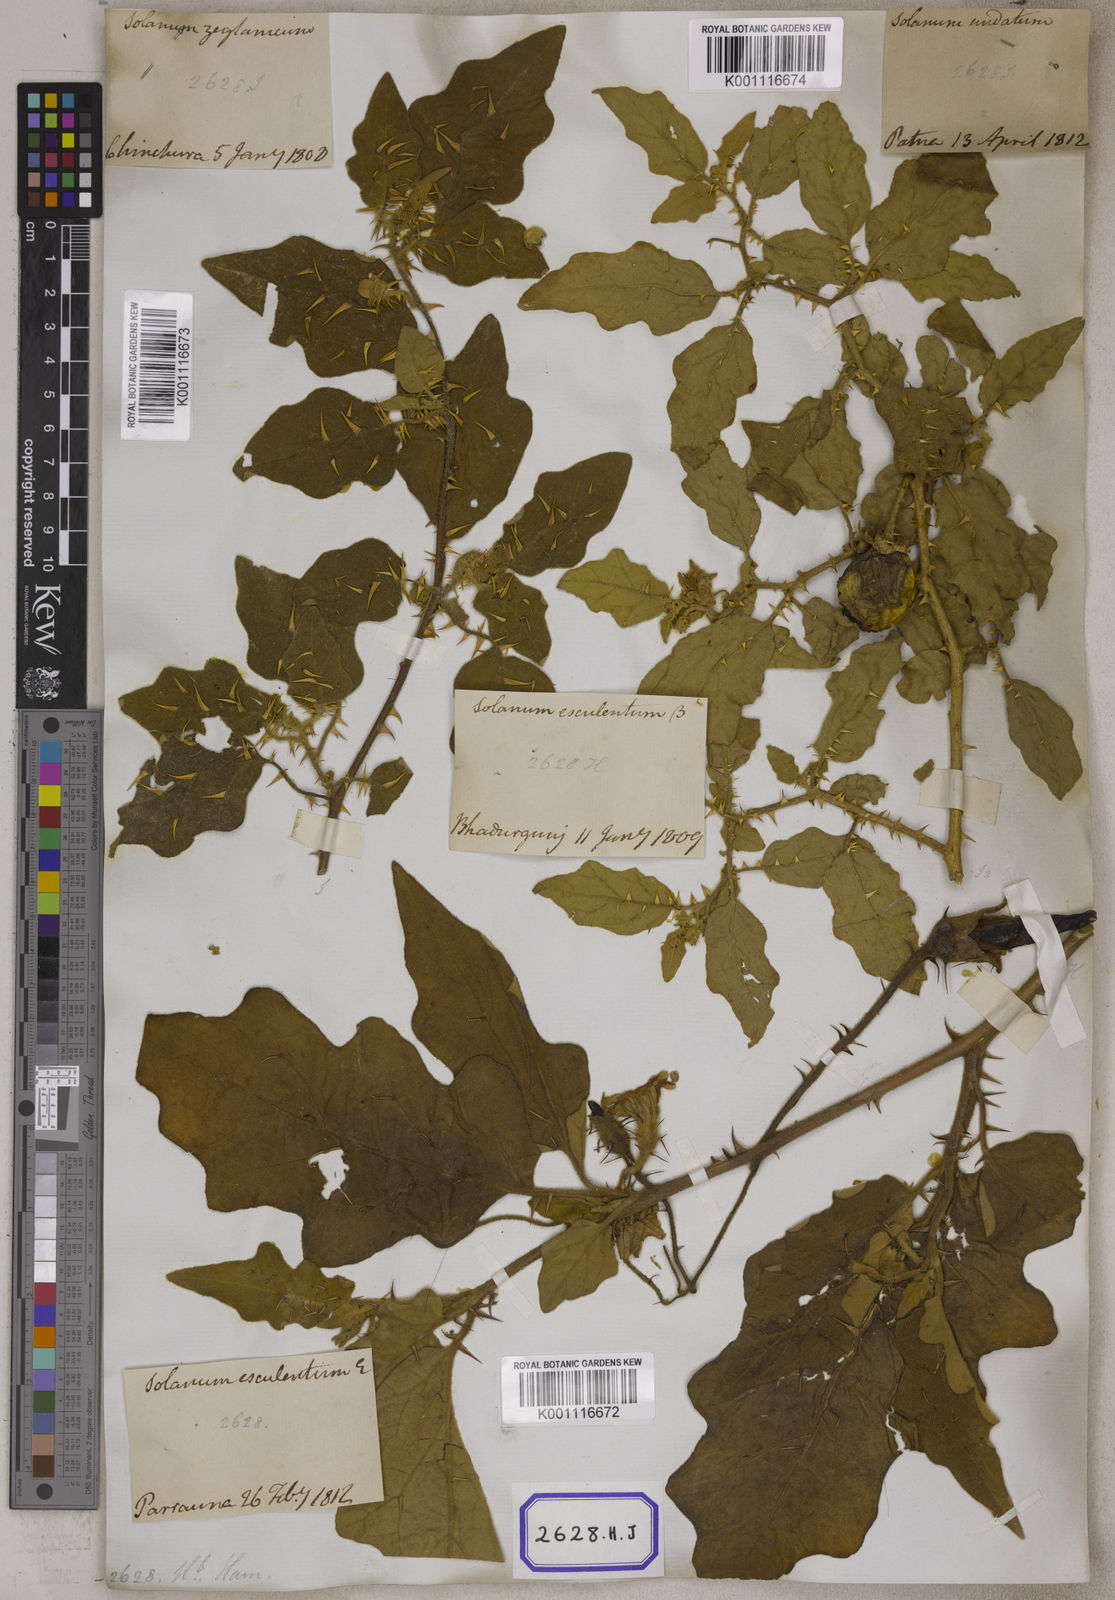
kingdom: Plantae
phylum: Tracheophyta
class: Magnoliopsida
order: Solanales
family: Solanaceae
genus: Solanum
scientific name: Solanum melongena
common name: Eggplant
